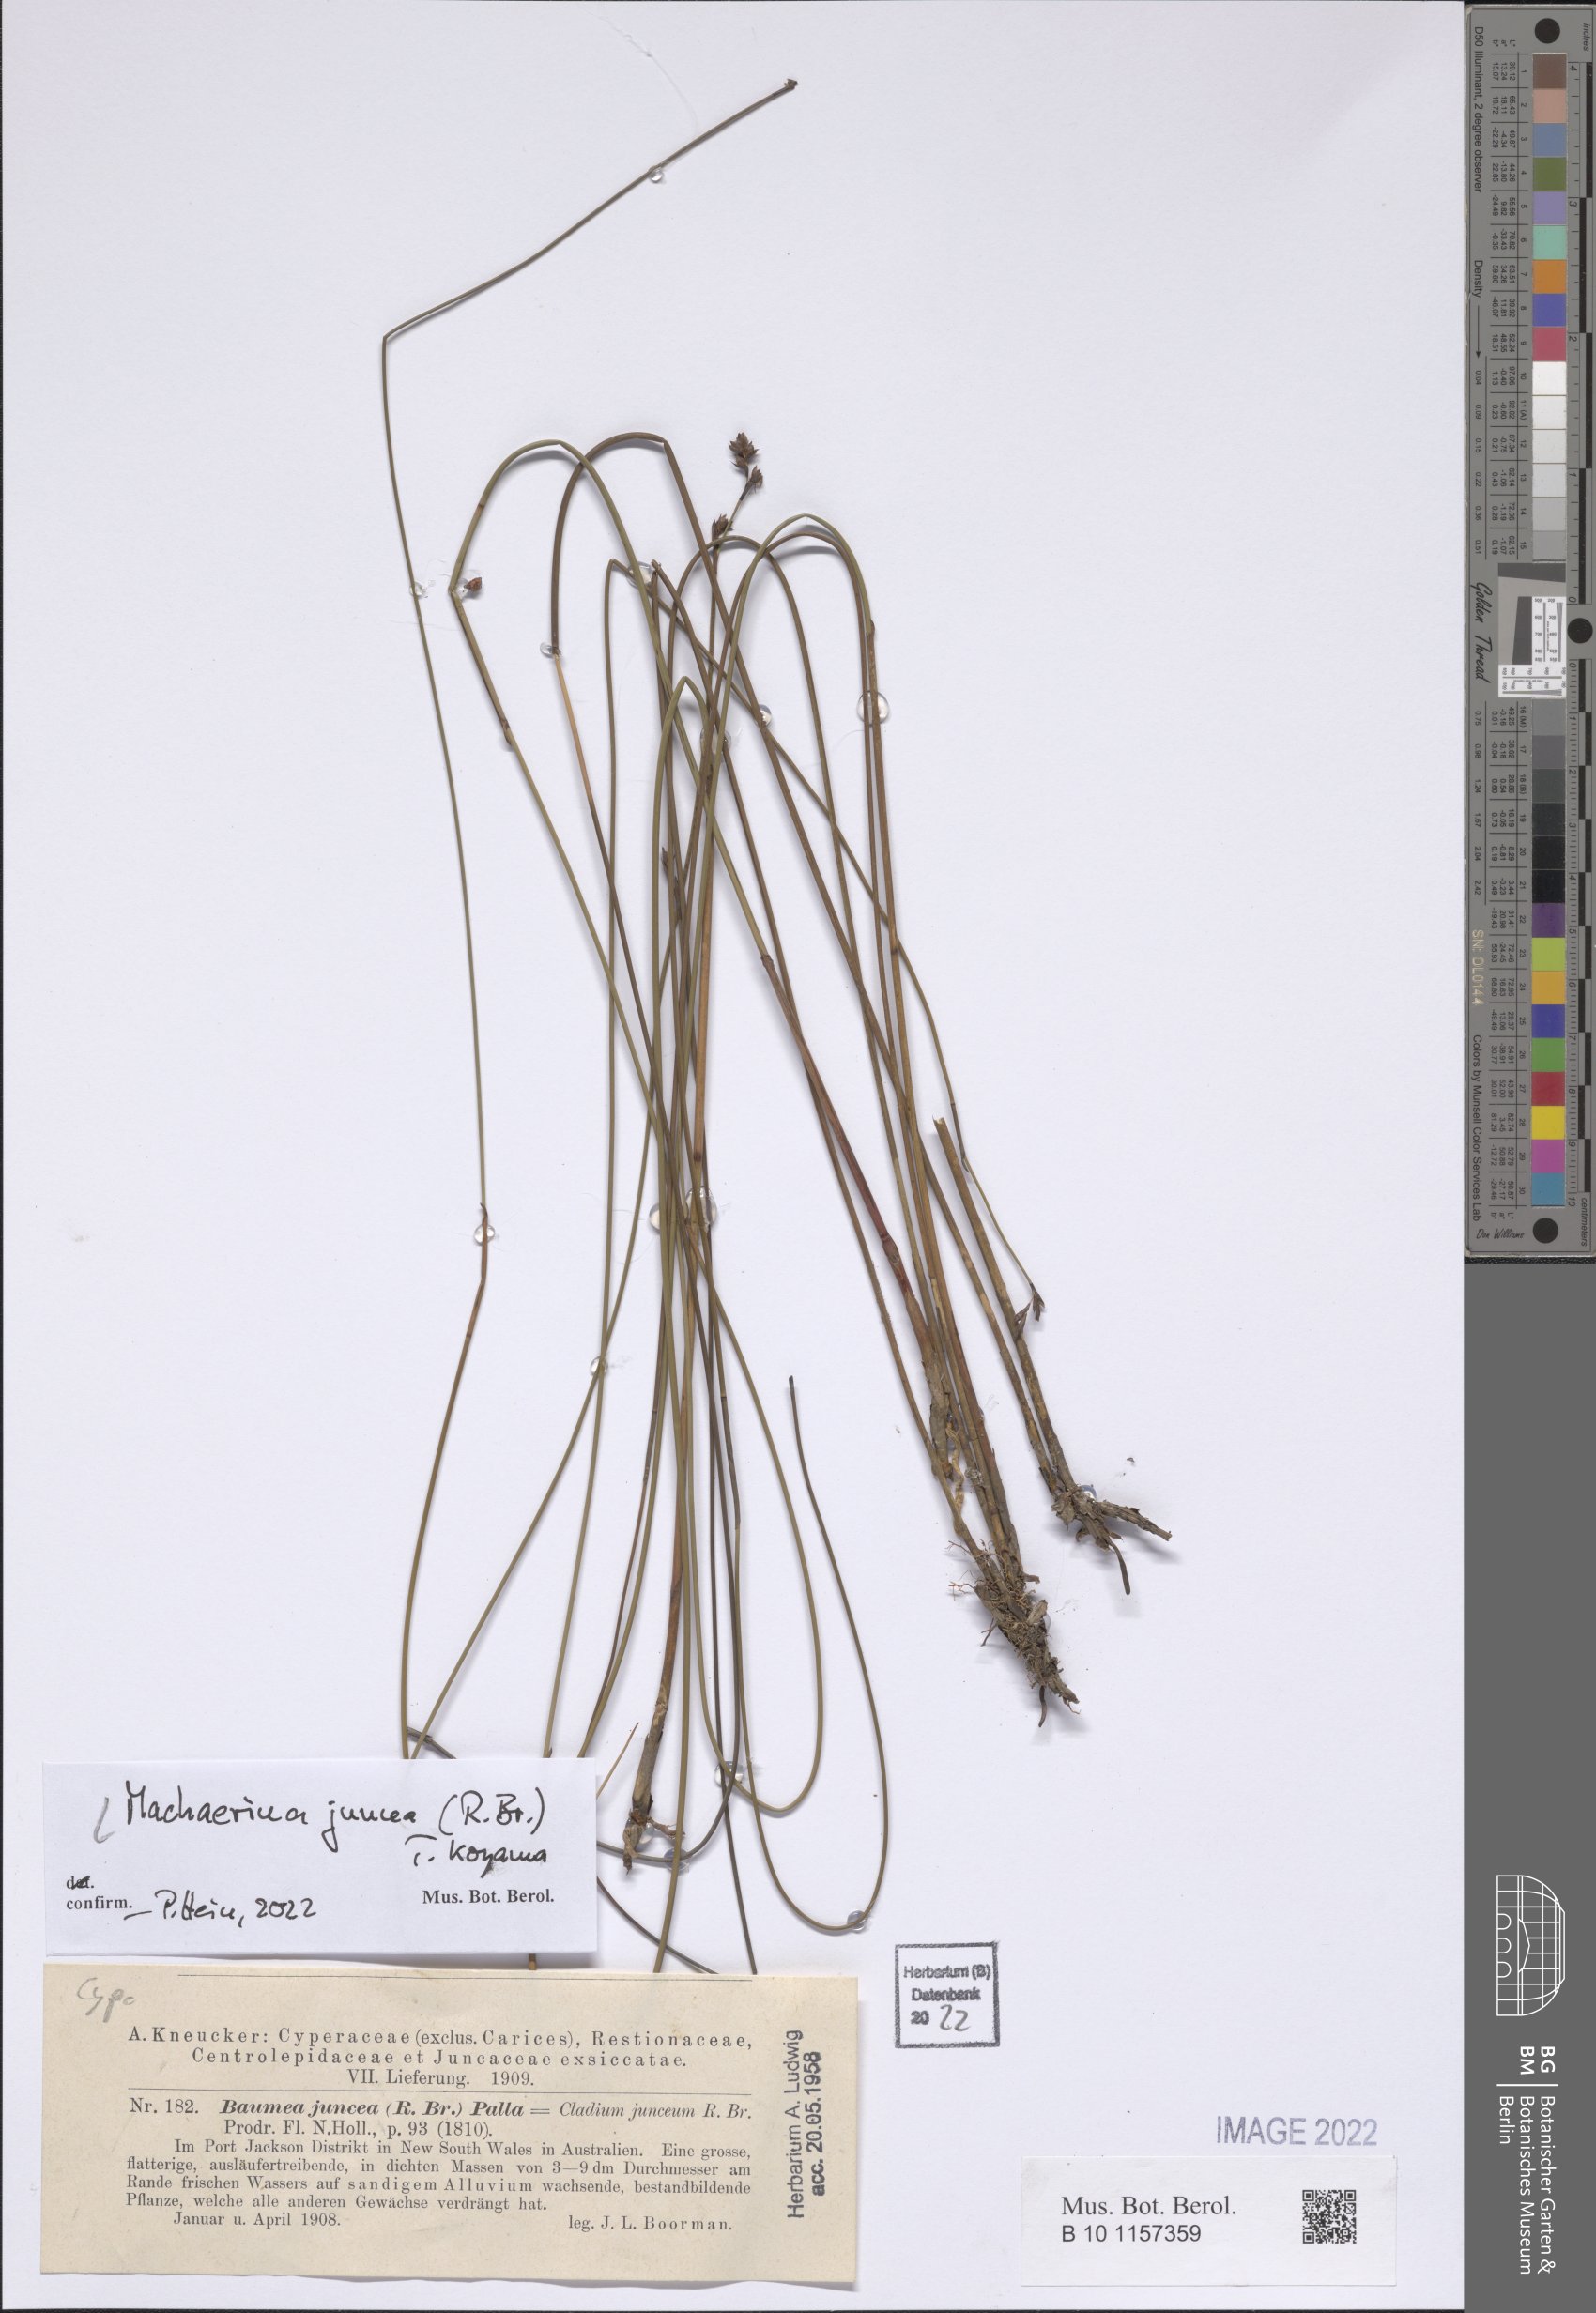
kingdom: Plantae
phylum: Tracheophyta
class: Liliopsida
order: Poales
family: Cyperaceae
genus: Machaerina
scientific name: Machaerina juncea
